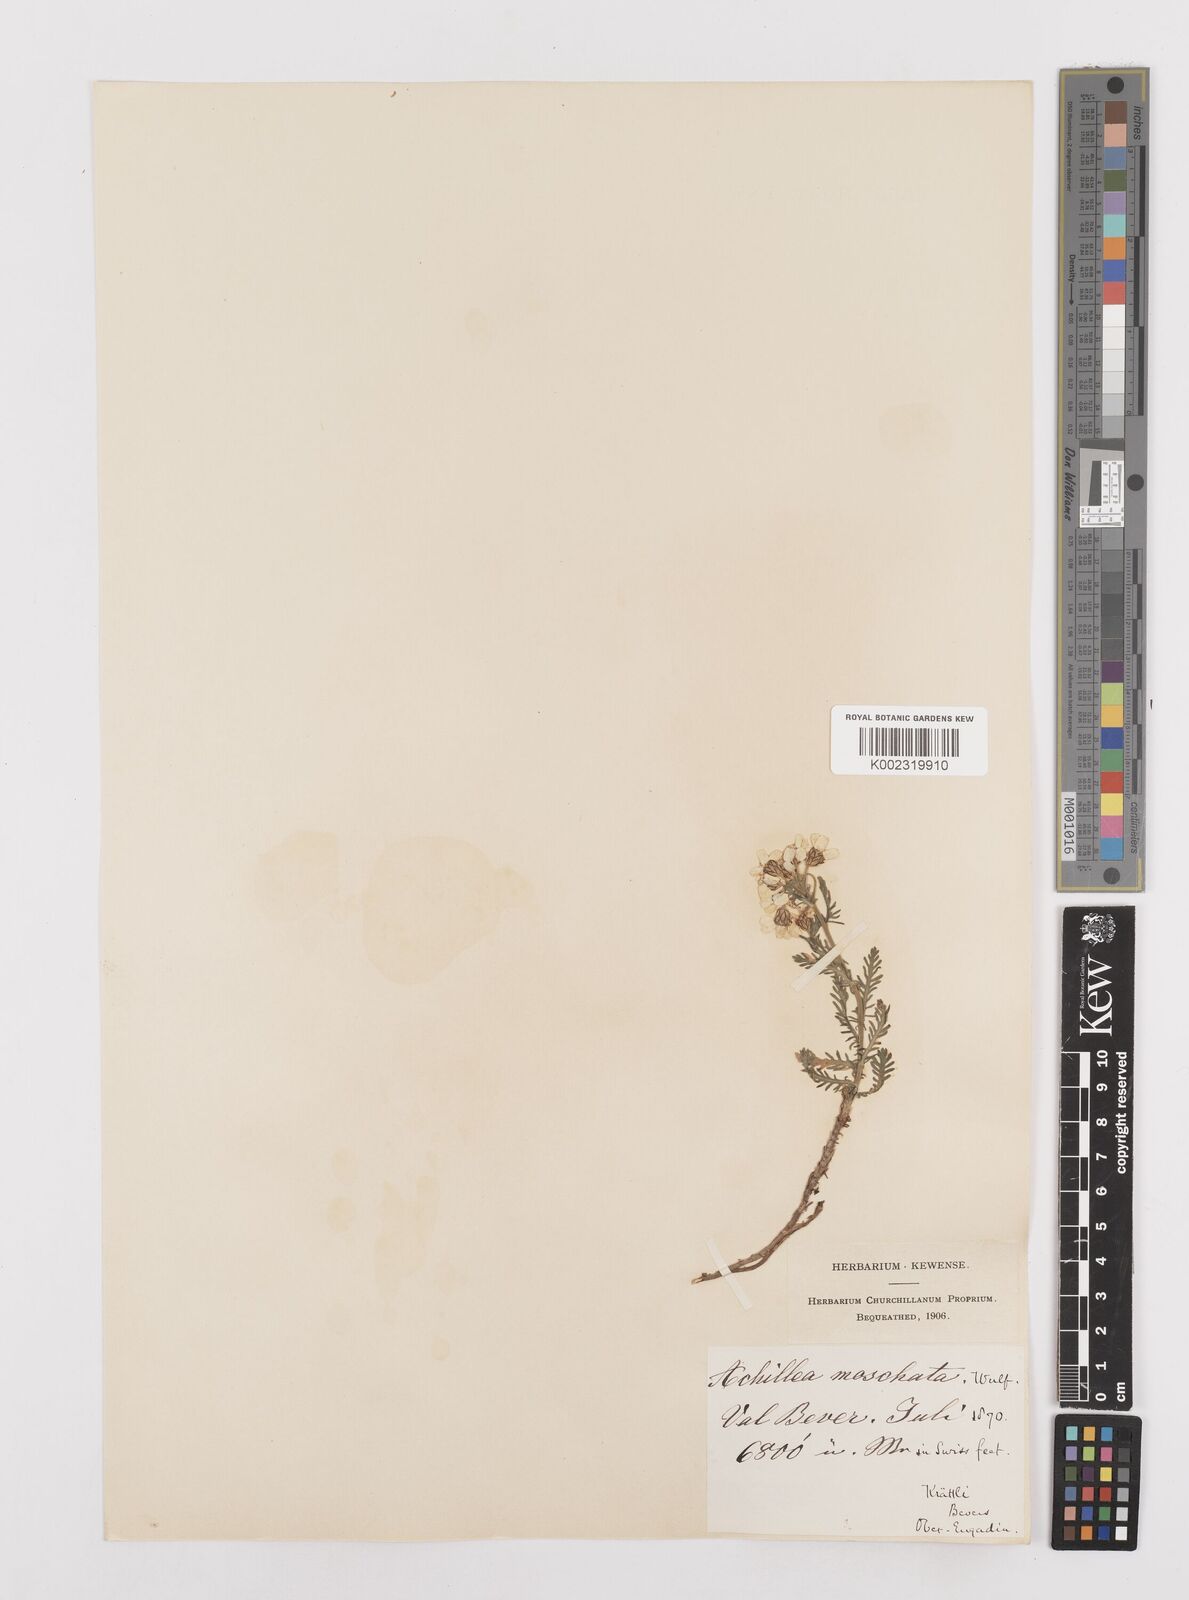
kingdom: Plantae
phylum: Tracheophyta
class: Magnoliopsida
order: Asterales
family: Asteraceae
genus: Achillea
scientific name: Achillea erba-rotta
